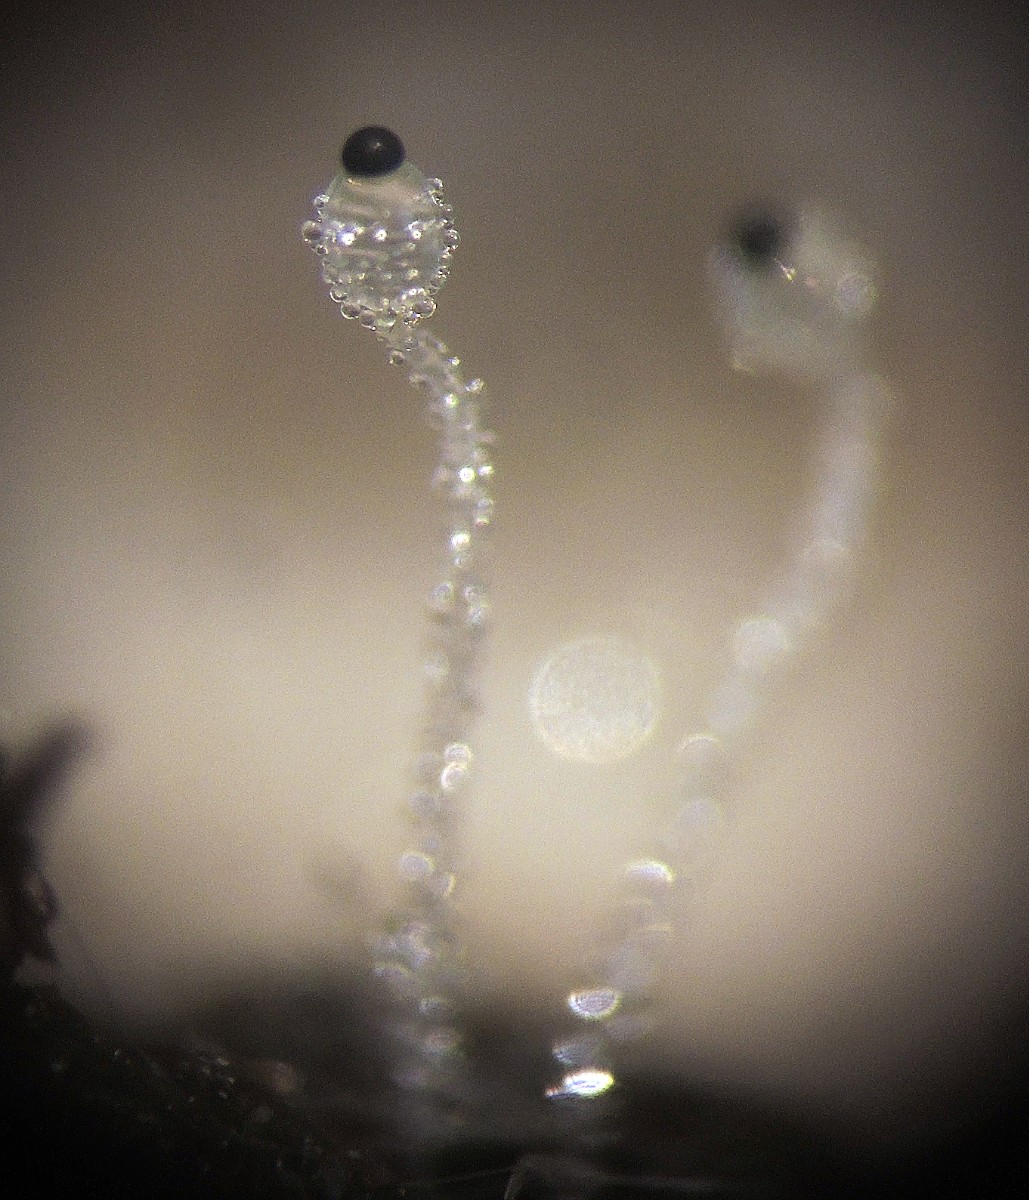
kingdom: Fungi
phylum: Mucoromycota
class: Mucoromycetes
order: Mucorales
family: Pilobolaceae
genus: Pilobolus
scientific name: Pilobolus
